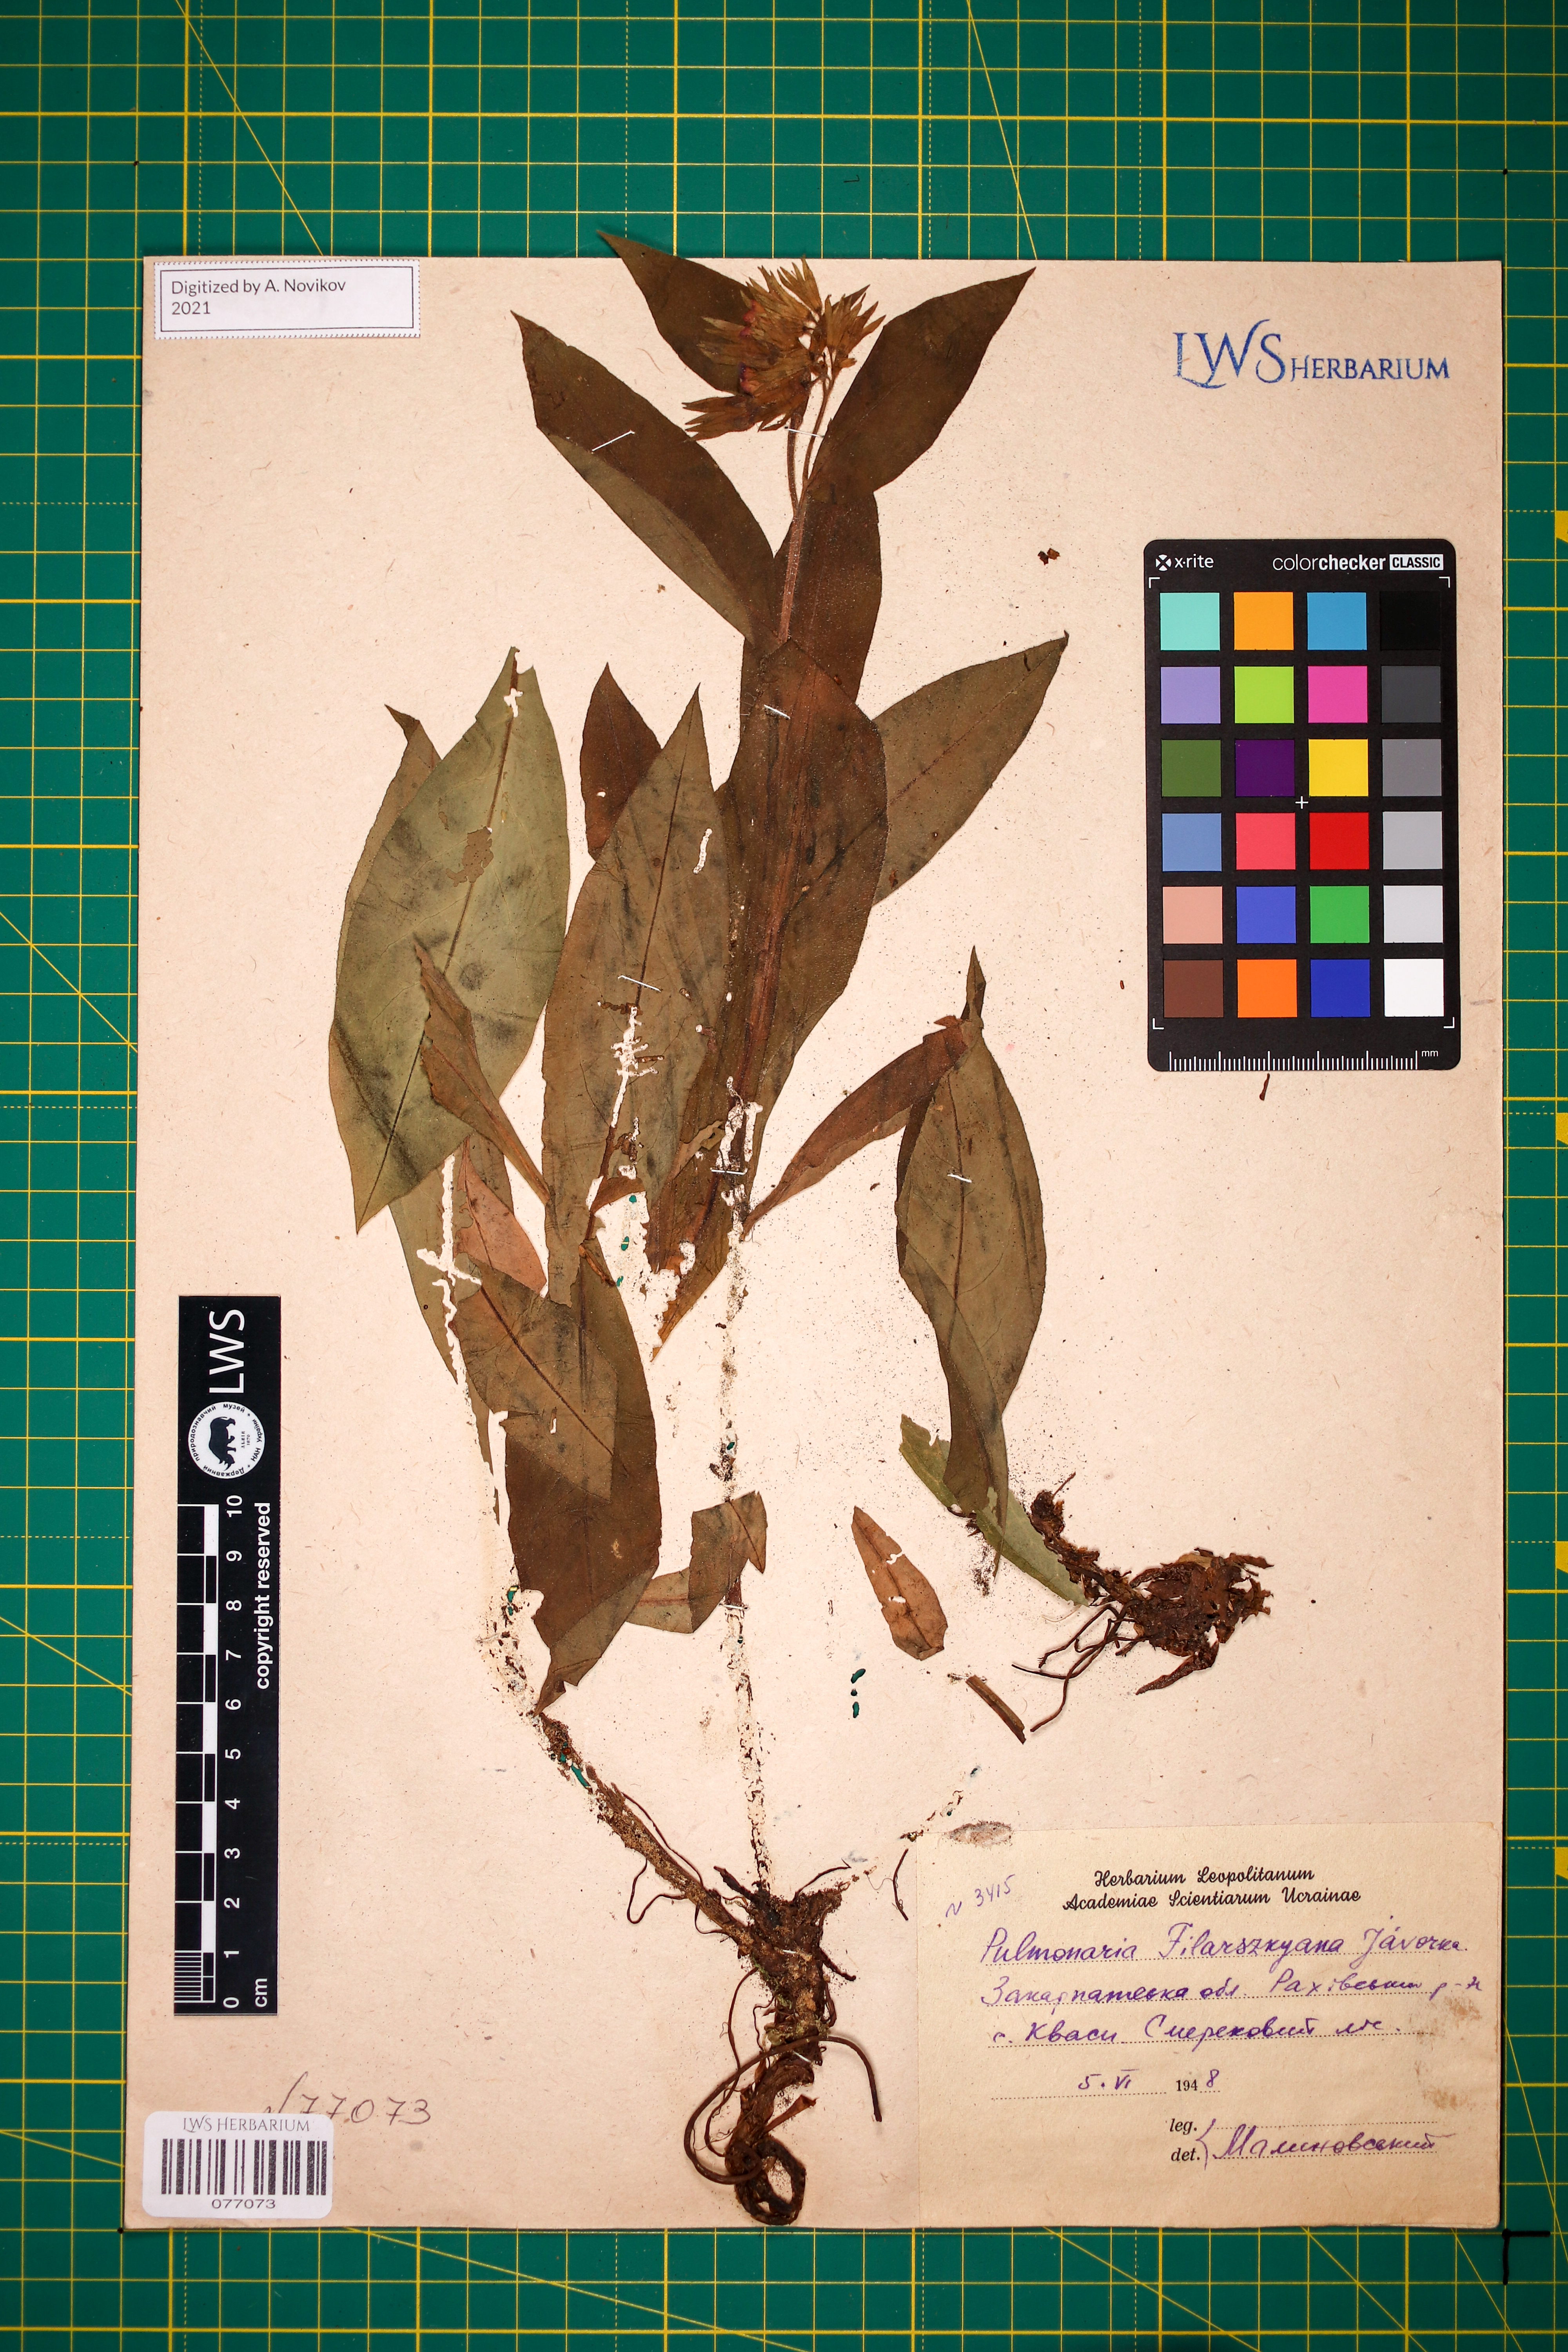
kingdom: Plantae
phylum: Tracheophyta
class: Magnoliopsida
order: Boraginales
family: Boraginaceae
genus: Pulmonaria
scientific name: Pulmonaria filarszkyana
